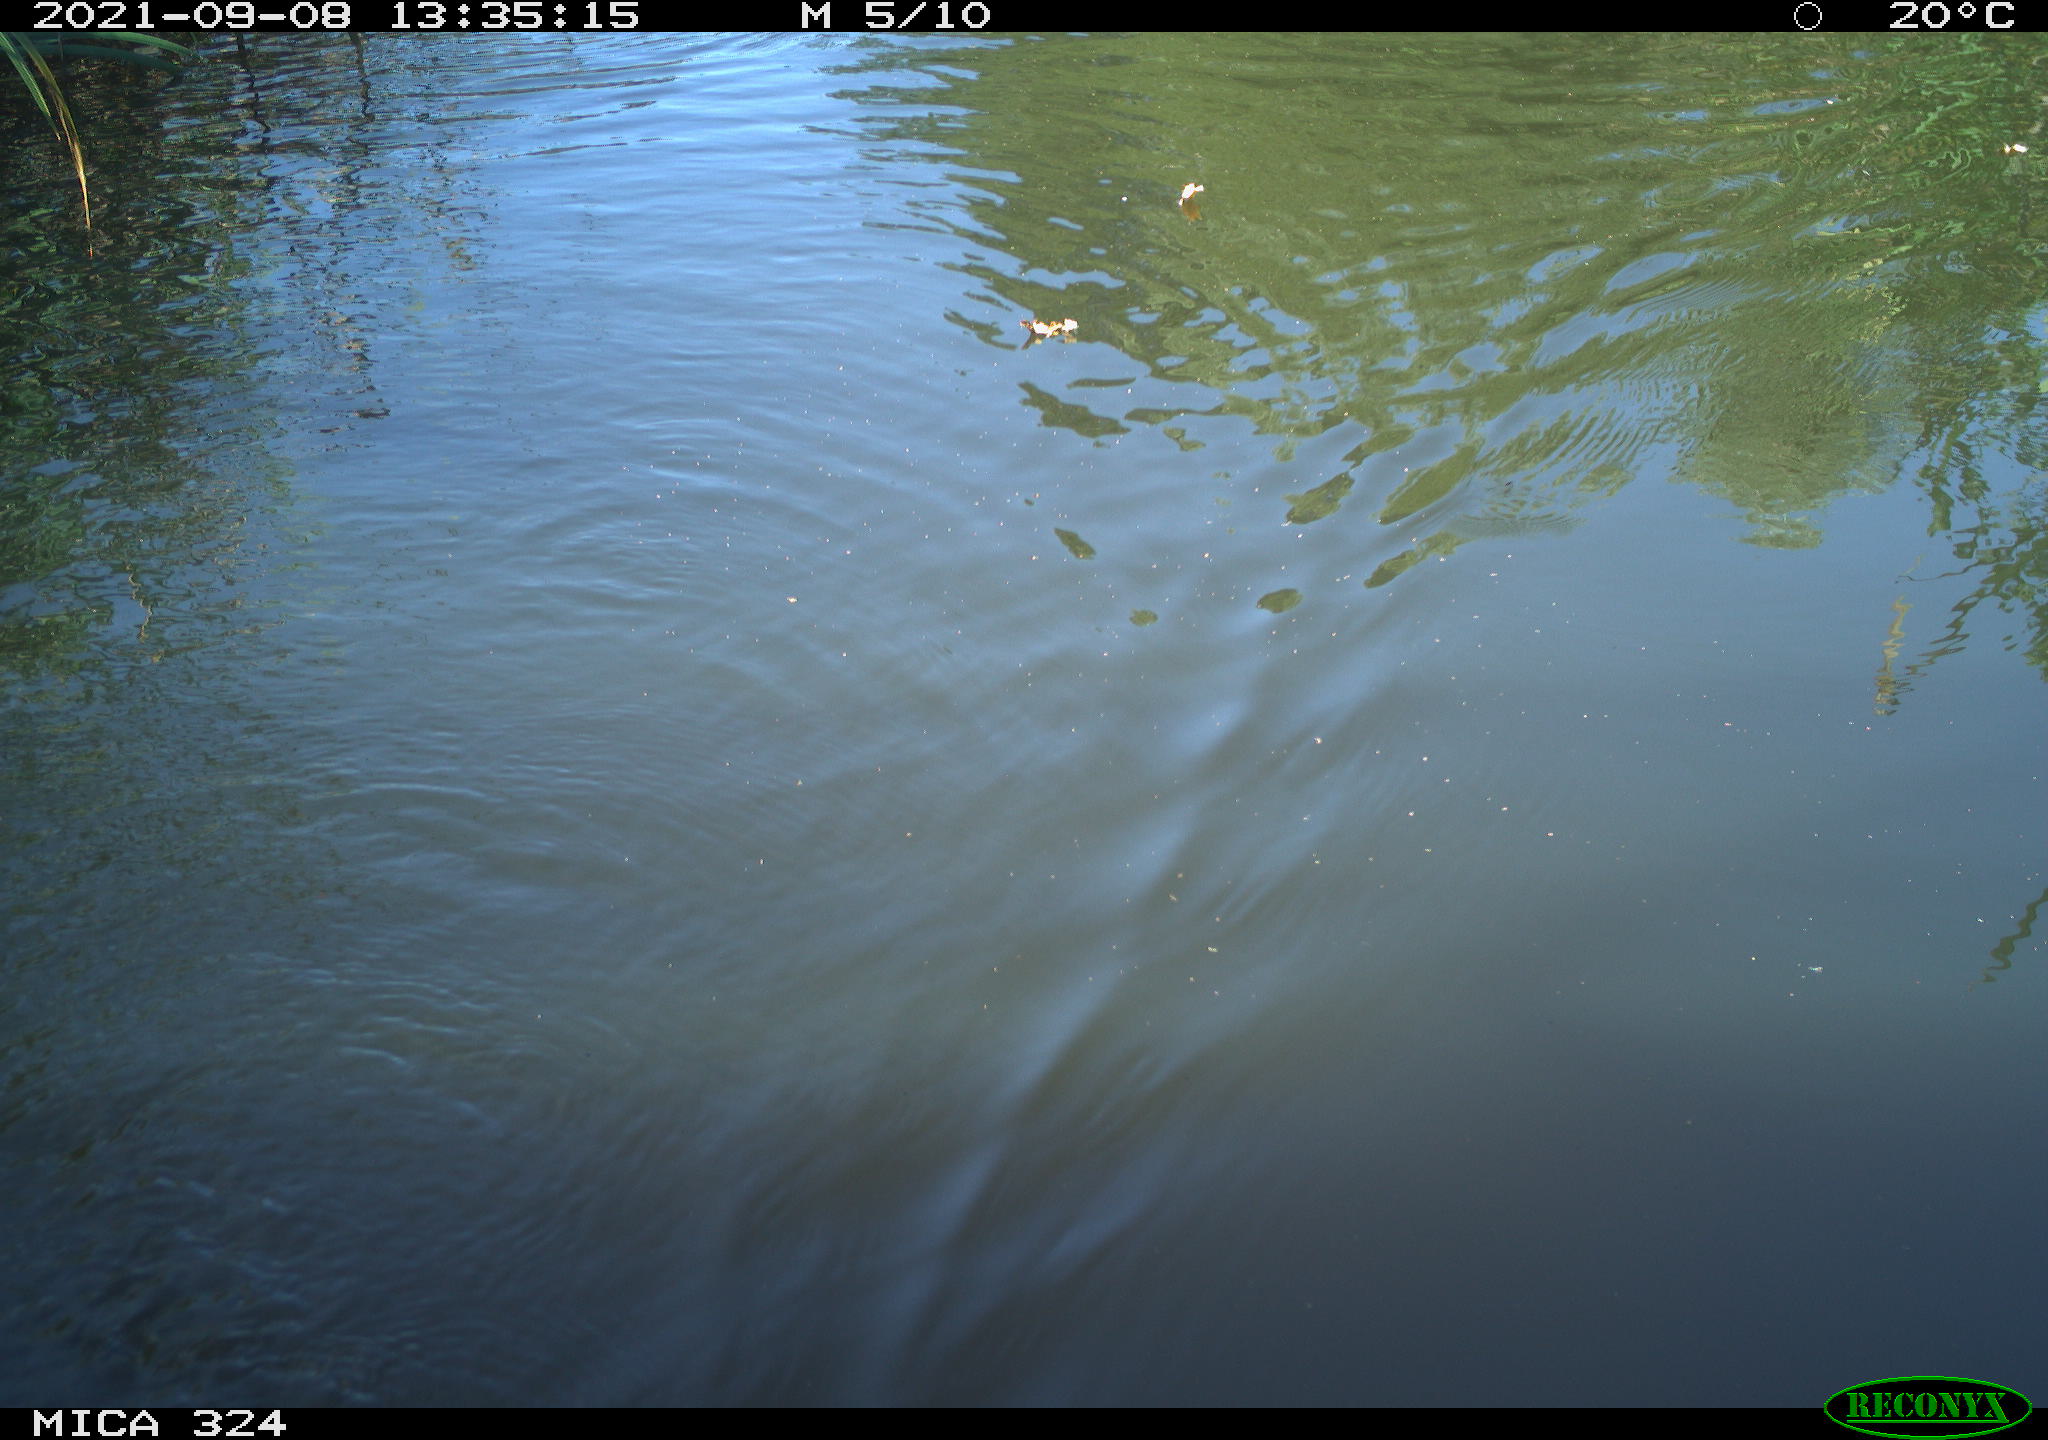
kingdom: Animalia
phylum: Chordata
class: Mammalia
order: Rodentia
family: Cricetidae
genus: Ondatra
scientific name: Ondatra zibethicus
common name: Muskrat
